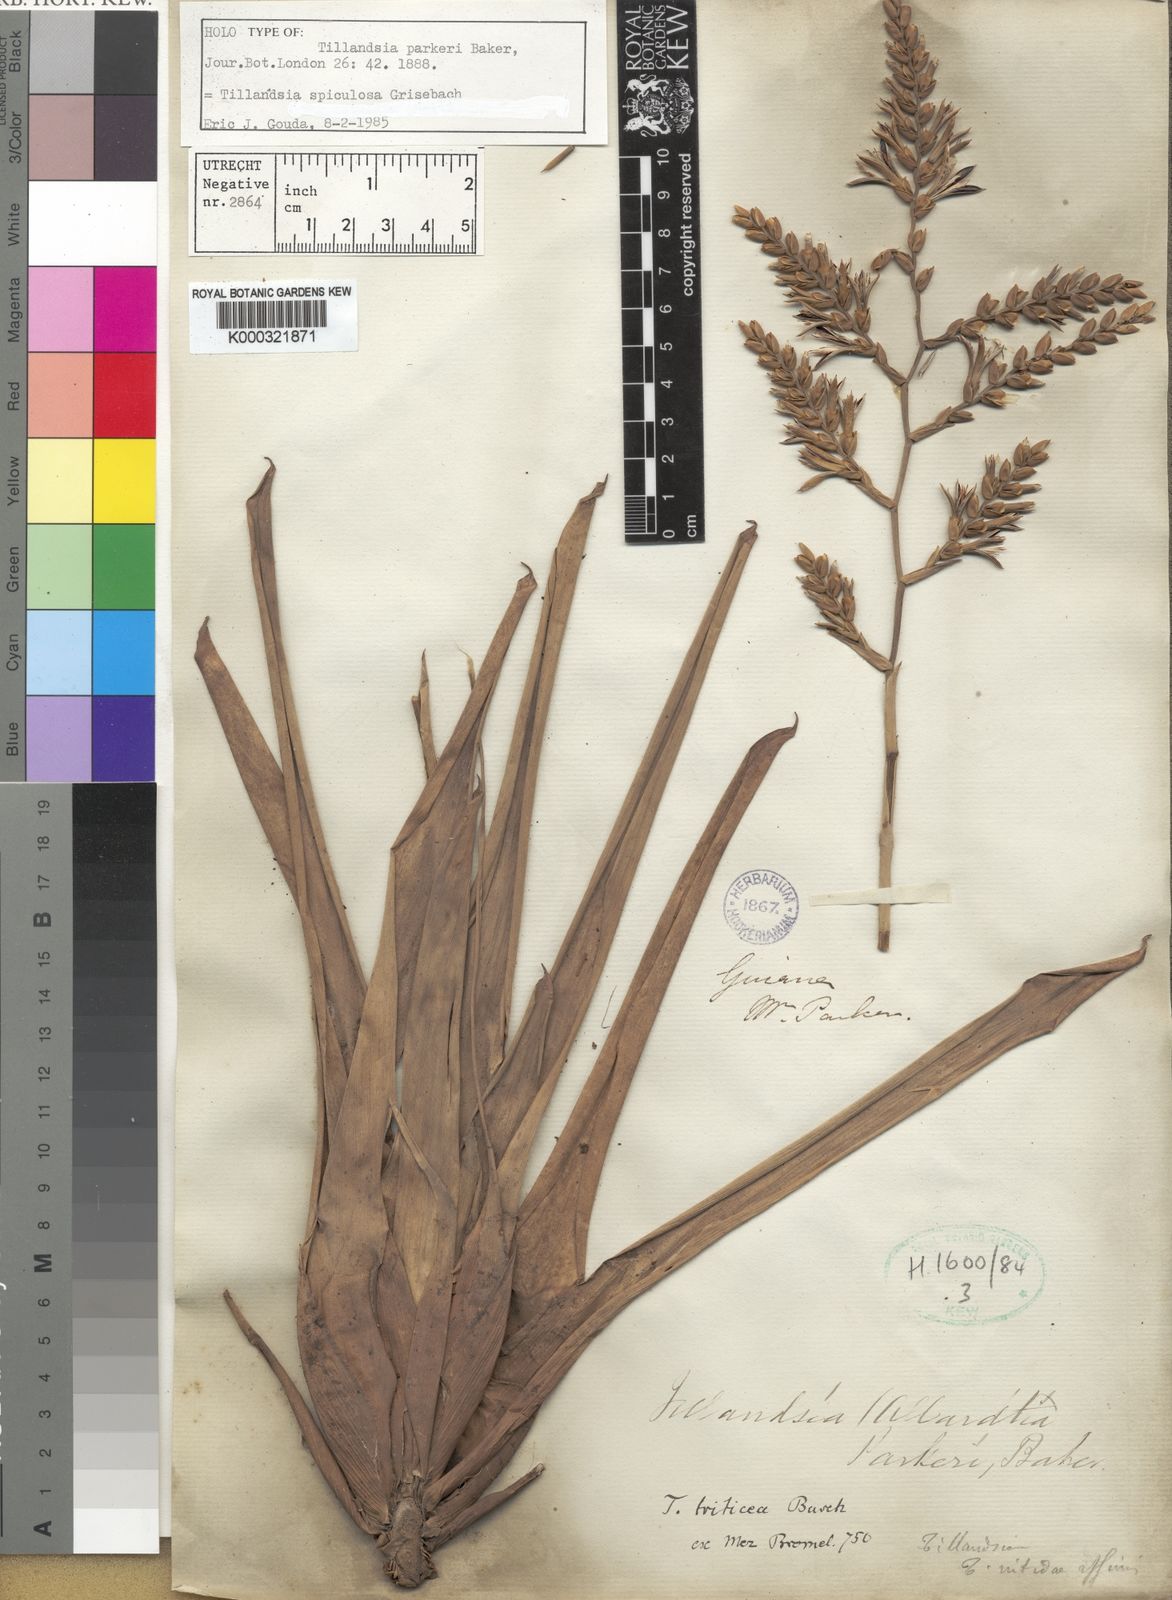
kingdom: Plantae
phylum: Tracheophyta
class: Liliopsida
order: Poales
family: Bromeliaceae
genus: Racinaea
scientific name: Racinaea spiculosa
